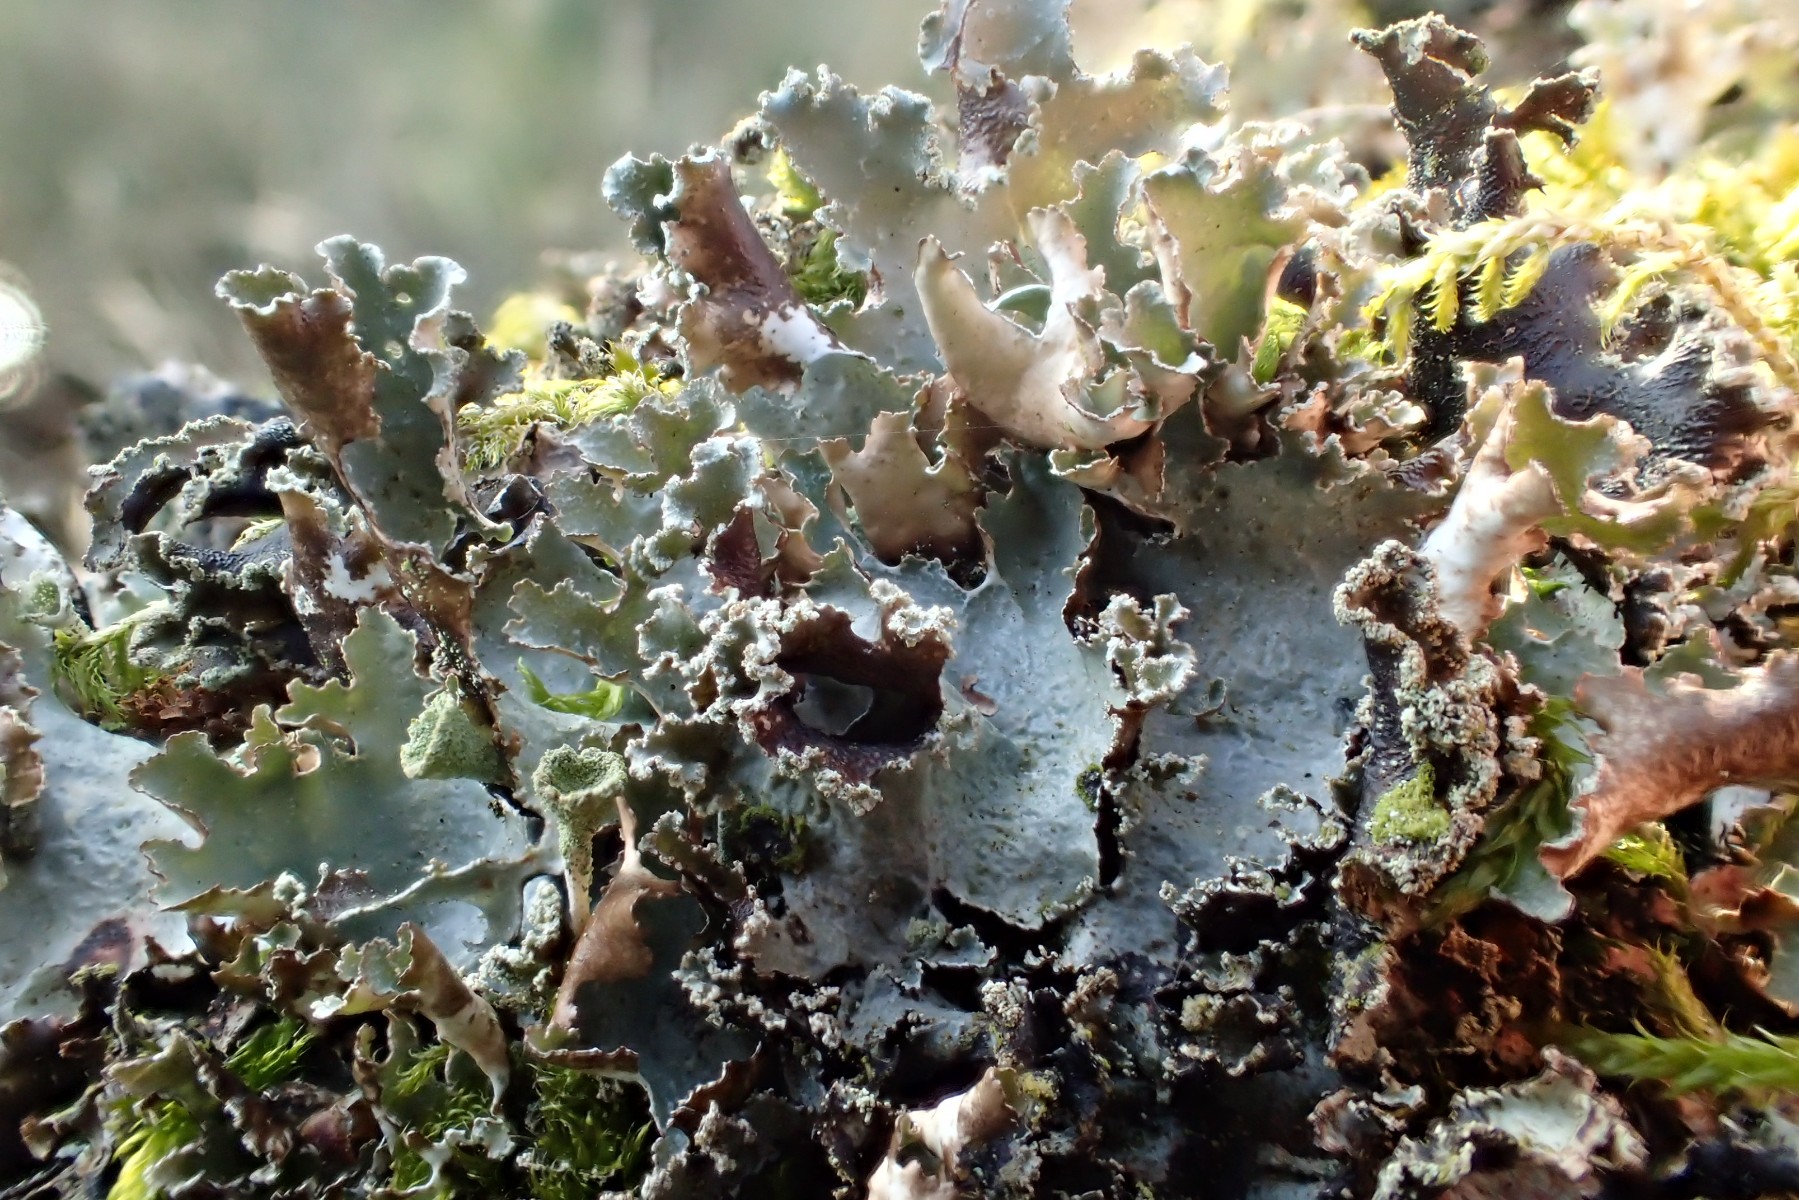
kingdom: Fungi
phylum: Ascomycota
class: Lecanoromycetes
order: Lecanorales
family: Parmeliaceae
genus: Platismatia
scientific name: Platismatia glauca
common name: blågrå papirlav
